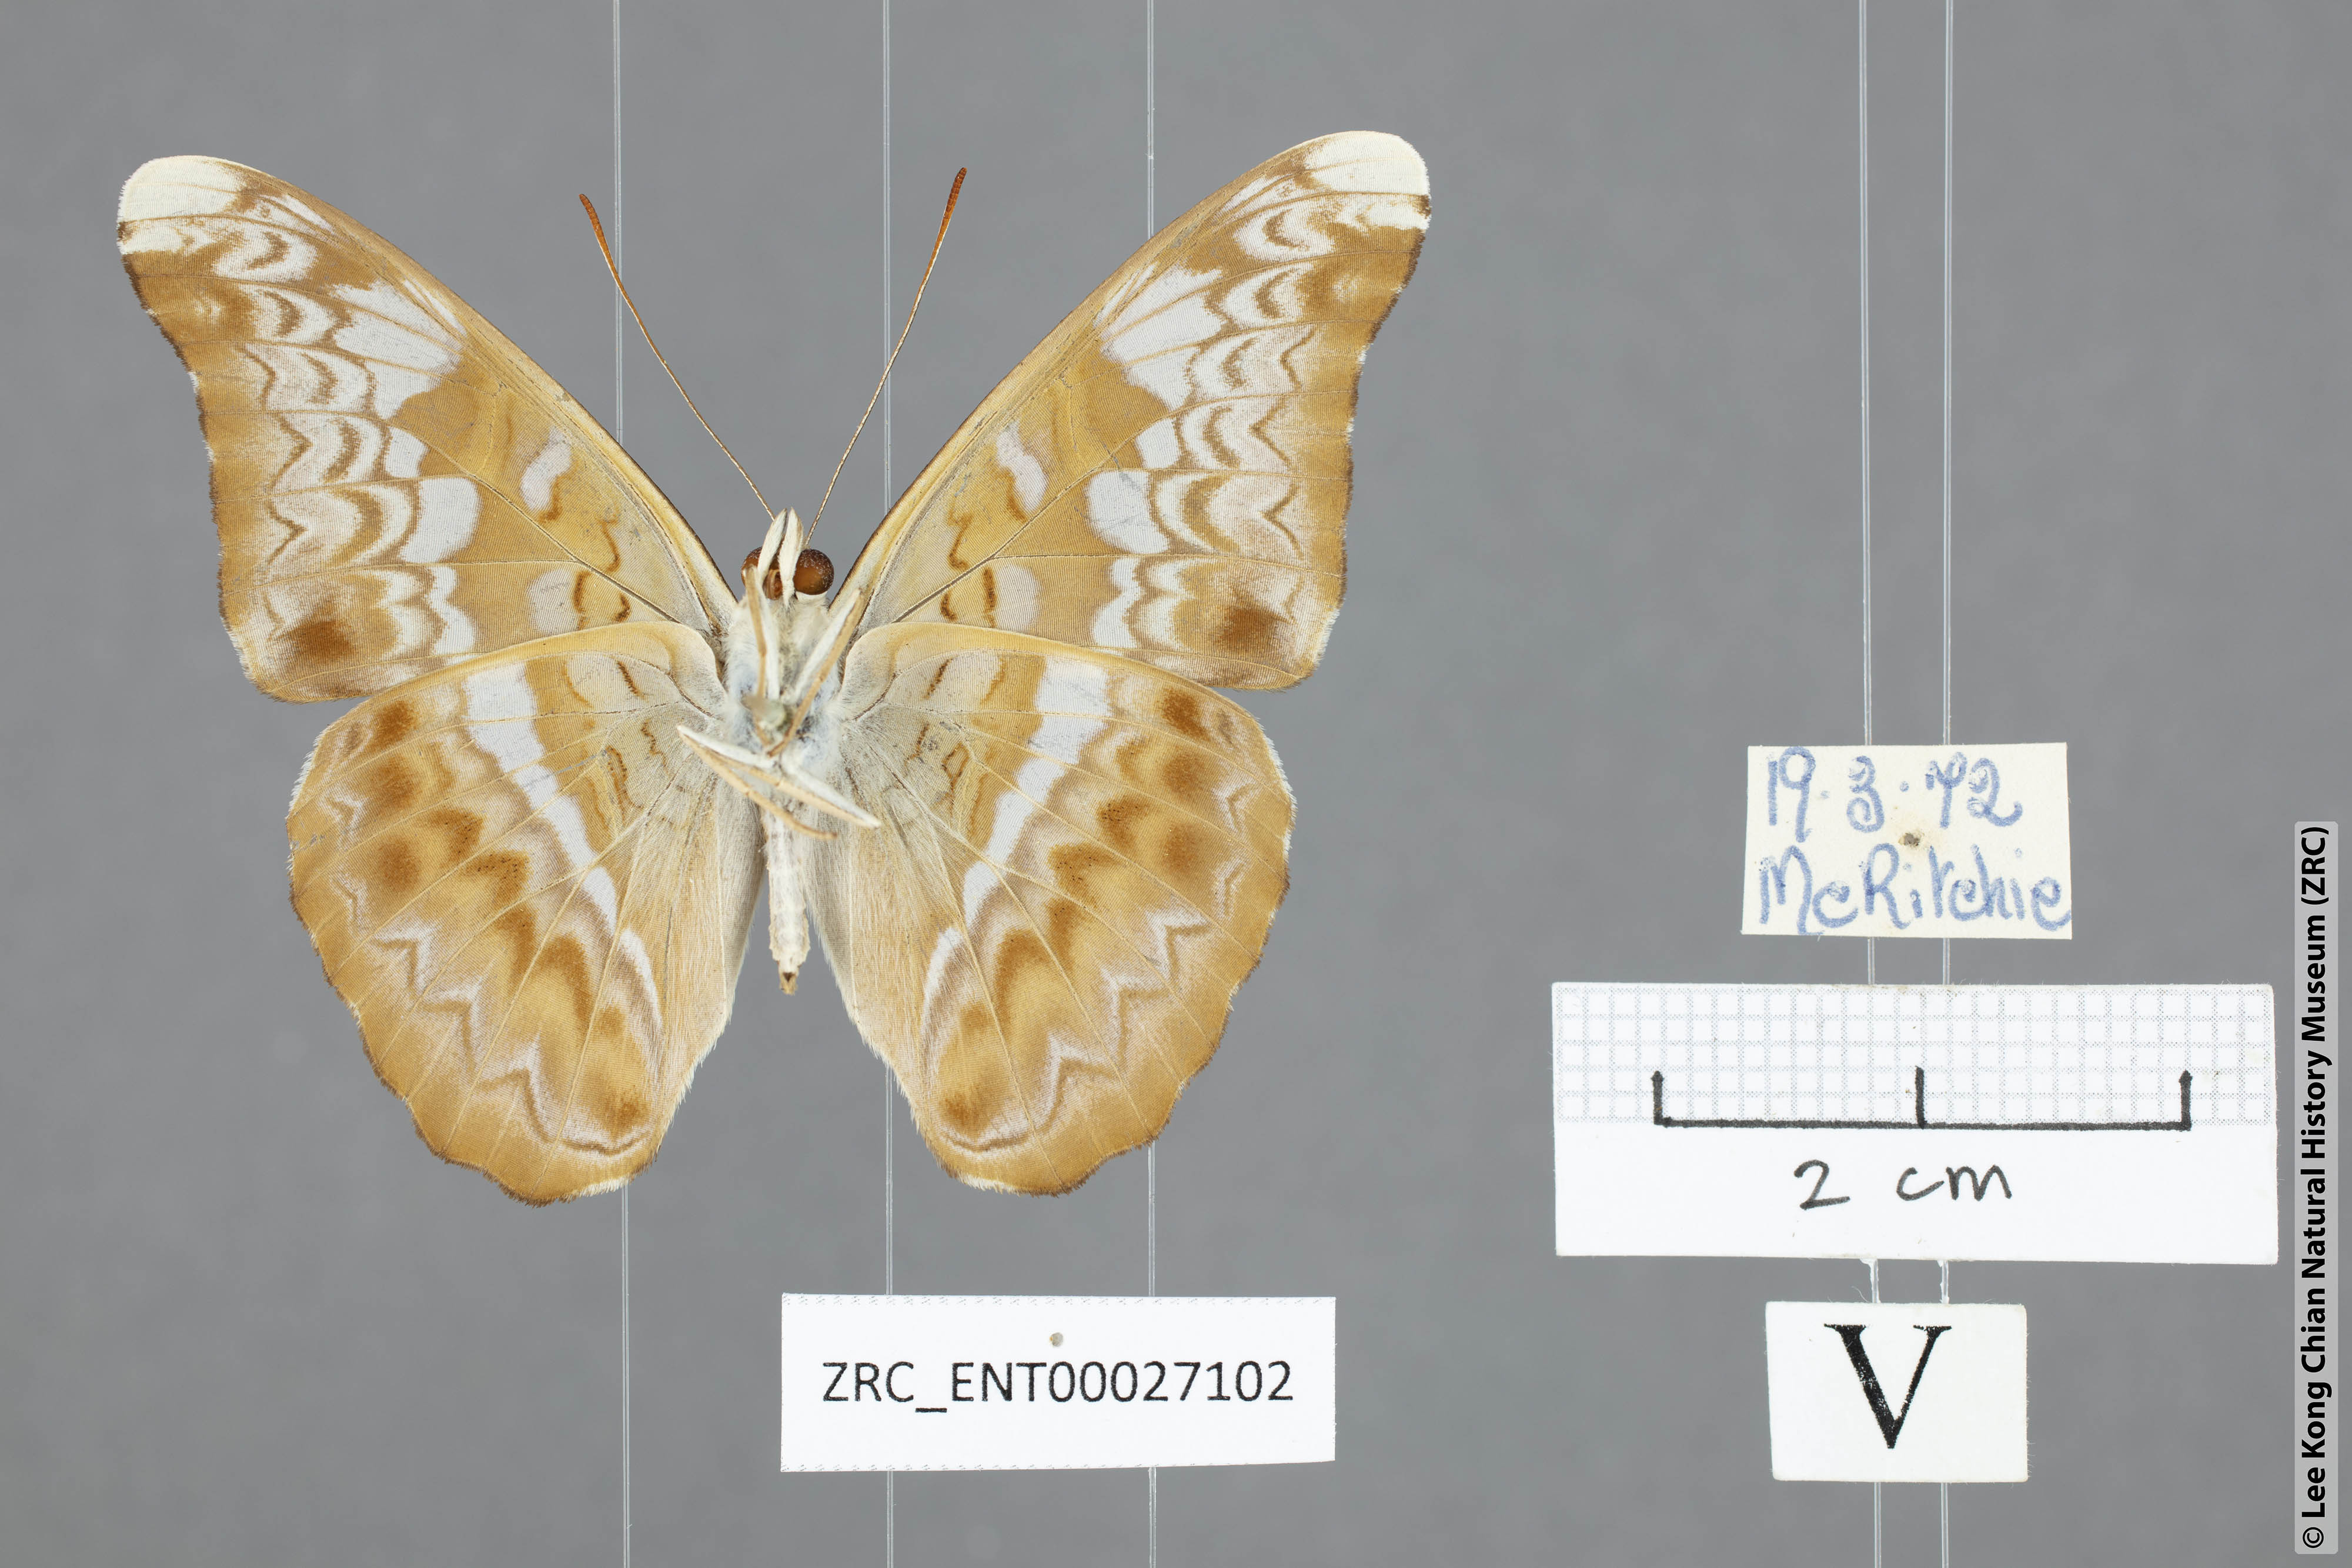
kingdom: Animalia
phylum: Arthropoda
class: Insecta
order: Lepidoptera
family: Nymphalidae
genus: Lebadea
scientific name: Lebadea martha
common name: Knight
